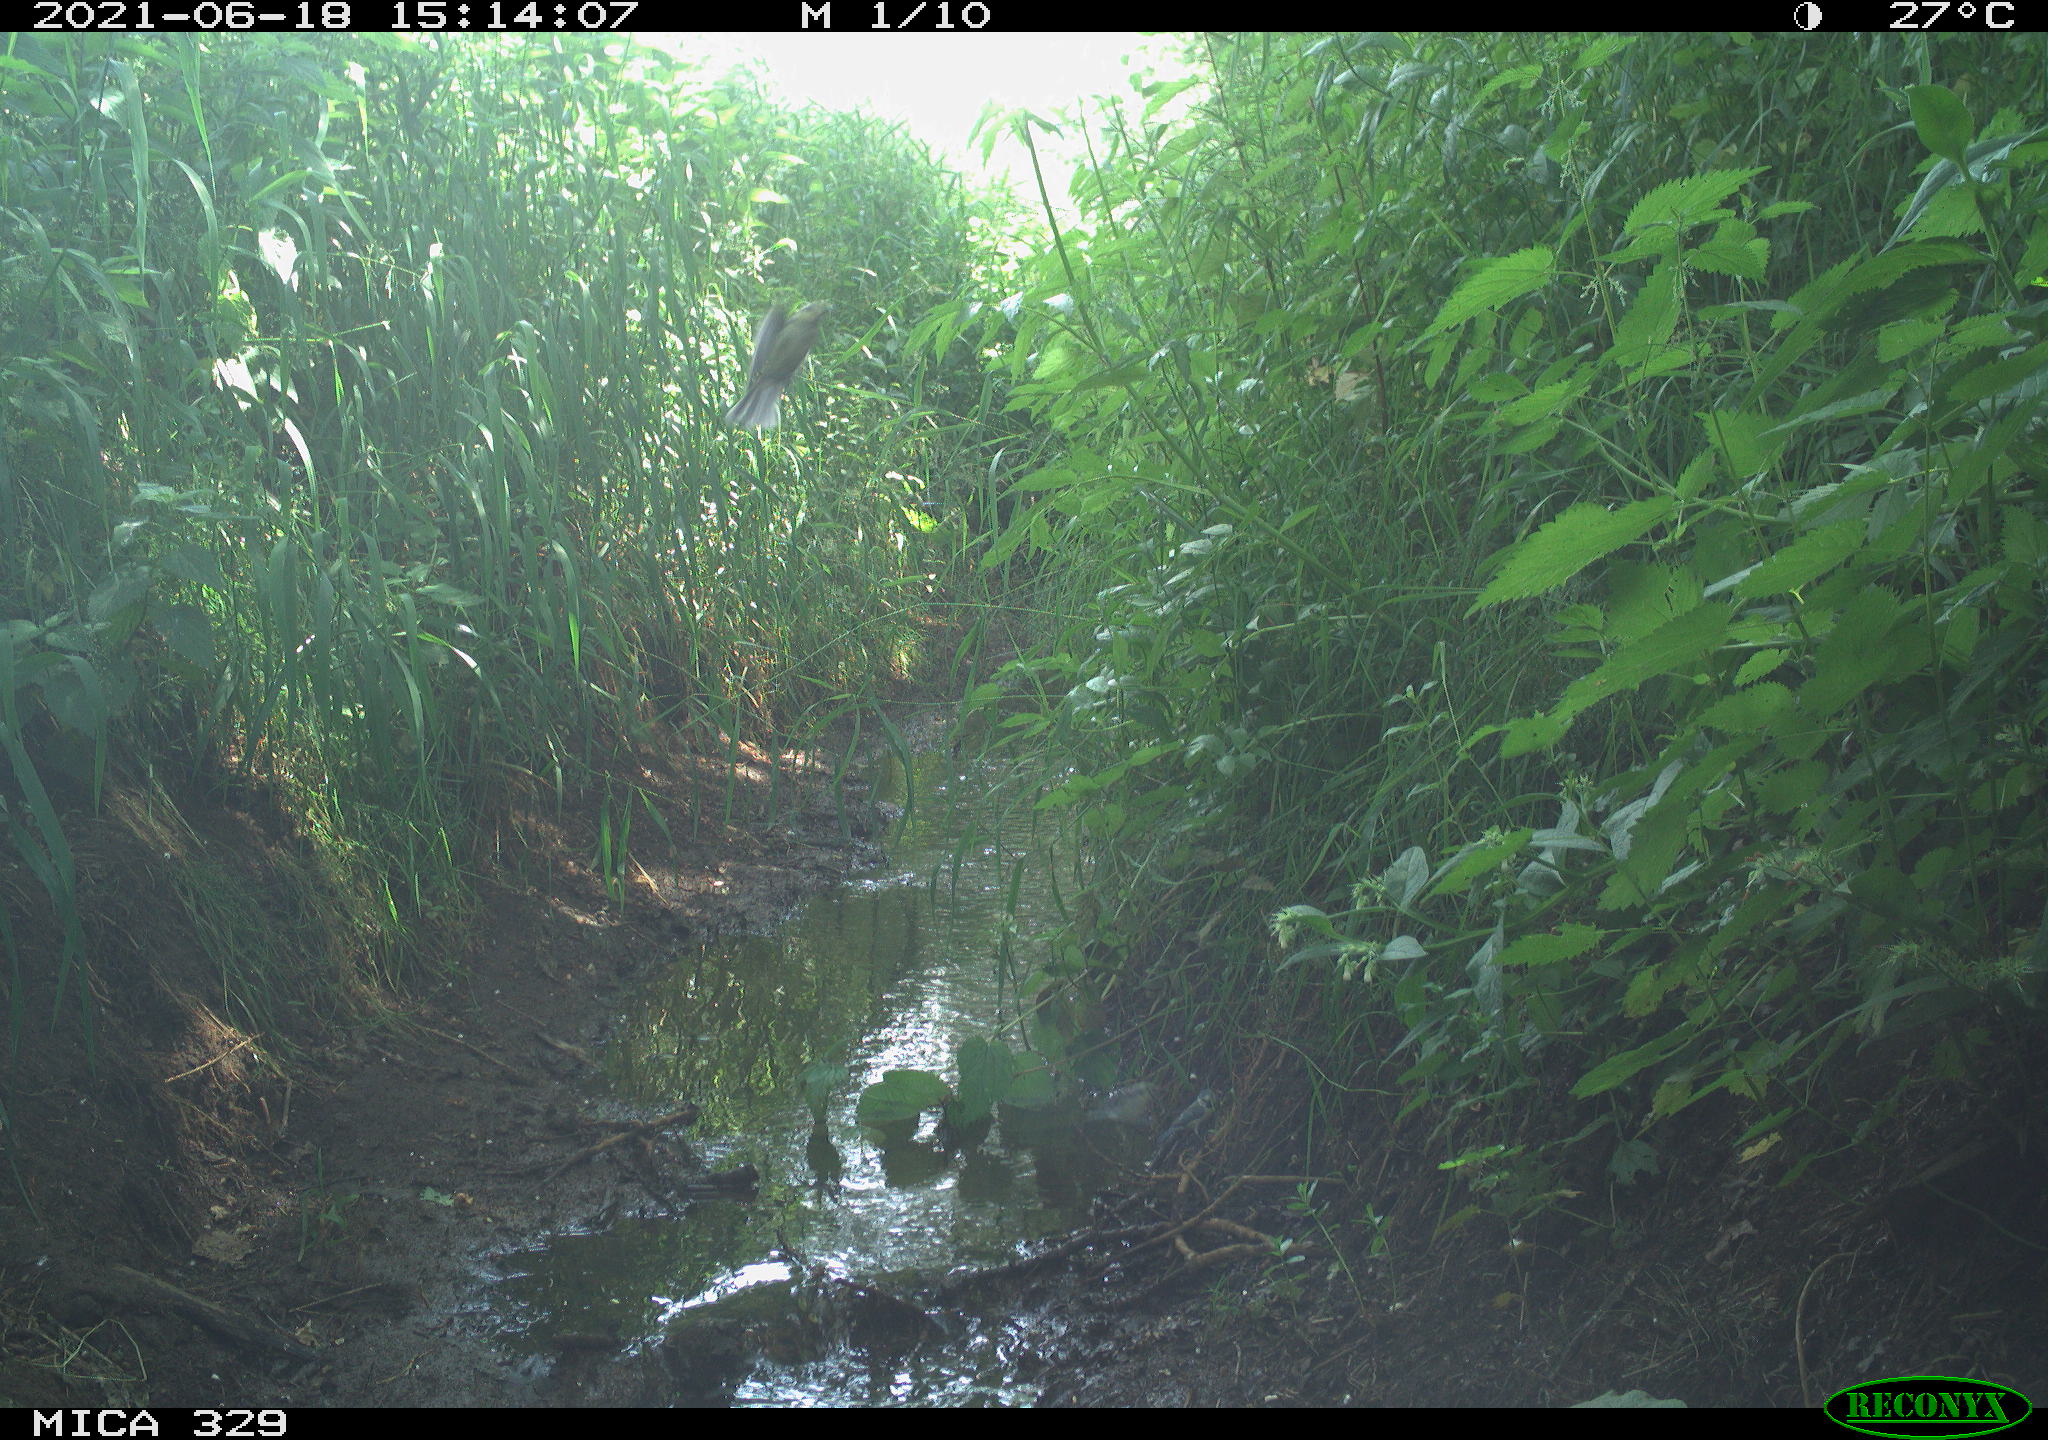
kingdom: Animalia
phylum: Chordata
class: Aves
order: Passeriformes
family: Paridae
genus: Cyanistes
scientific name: Cyanistes caeruleus
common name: Eurasian blue tit
